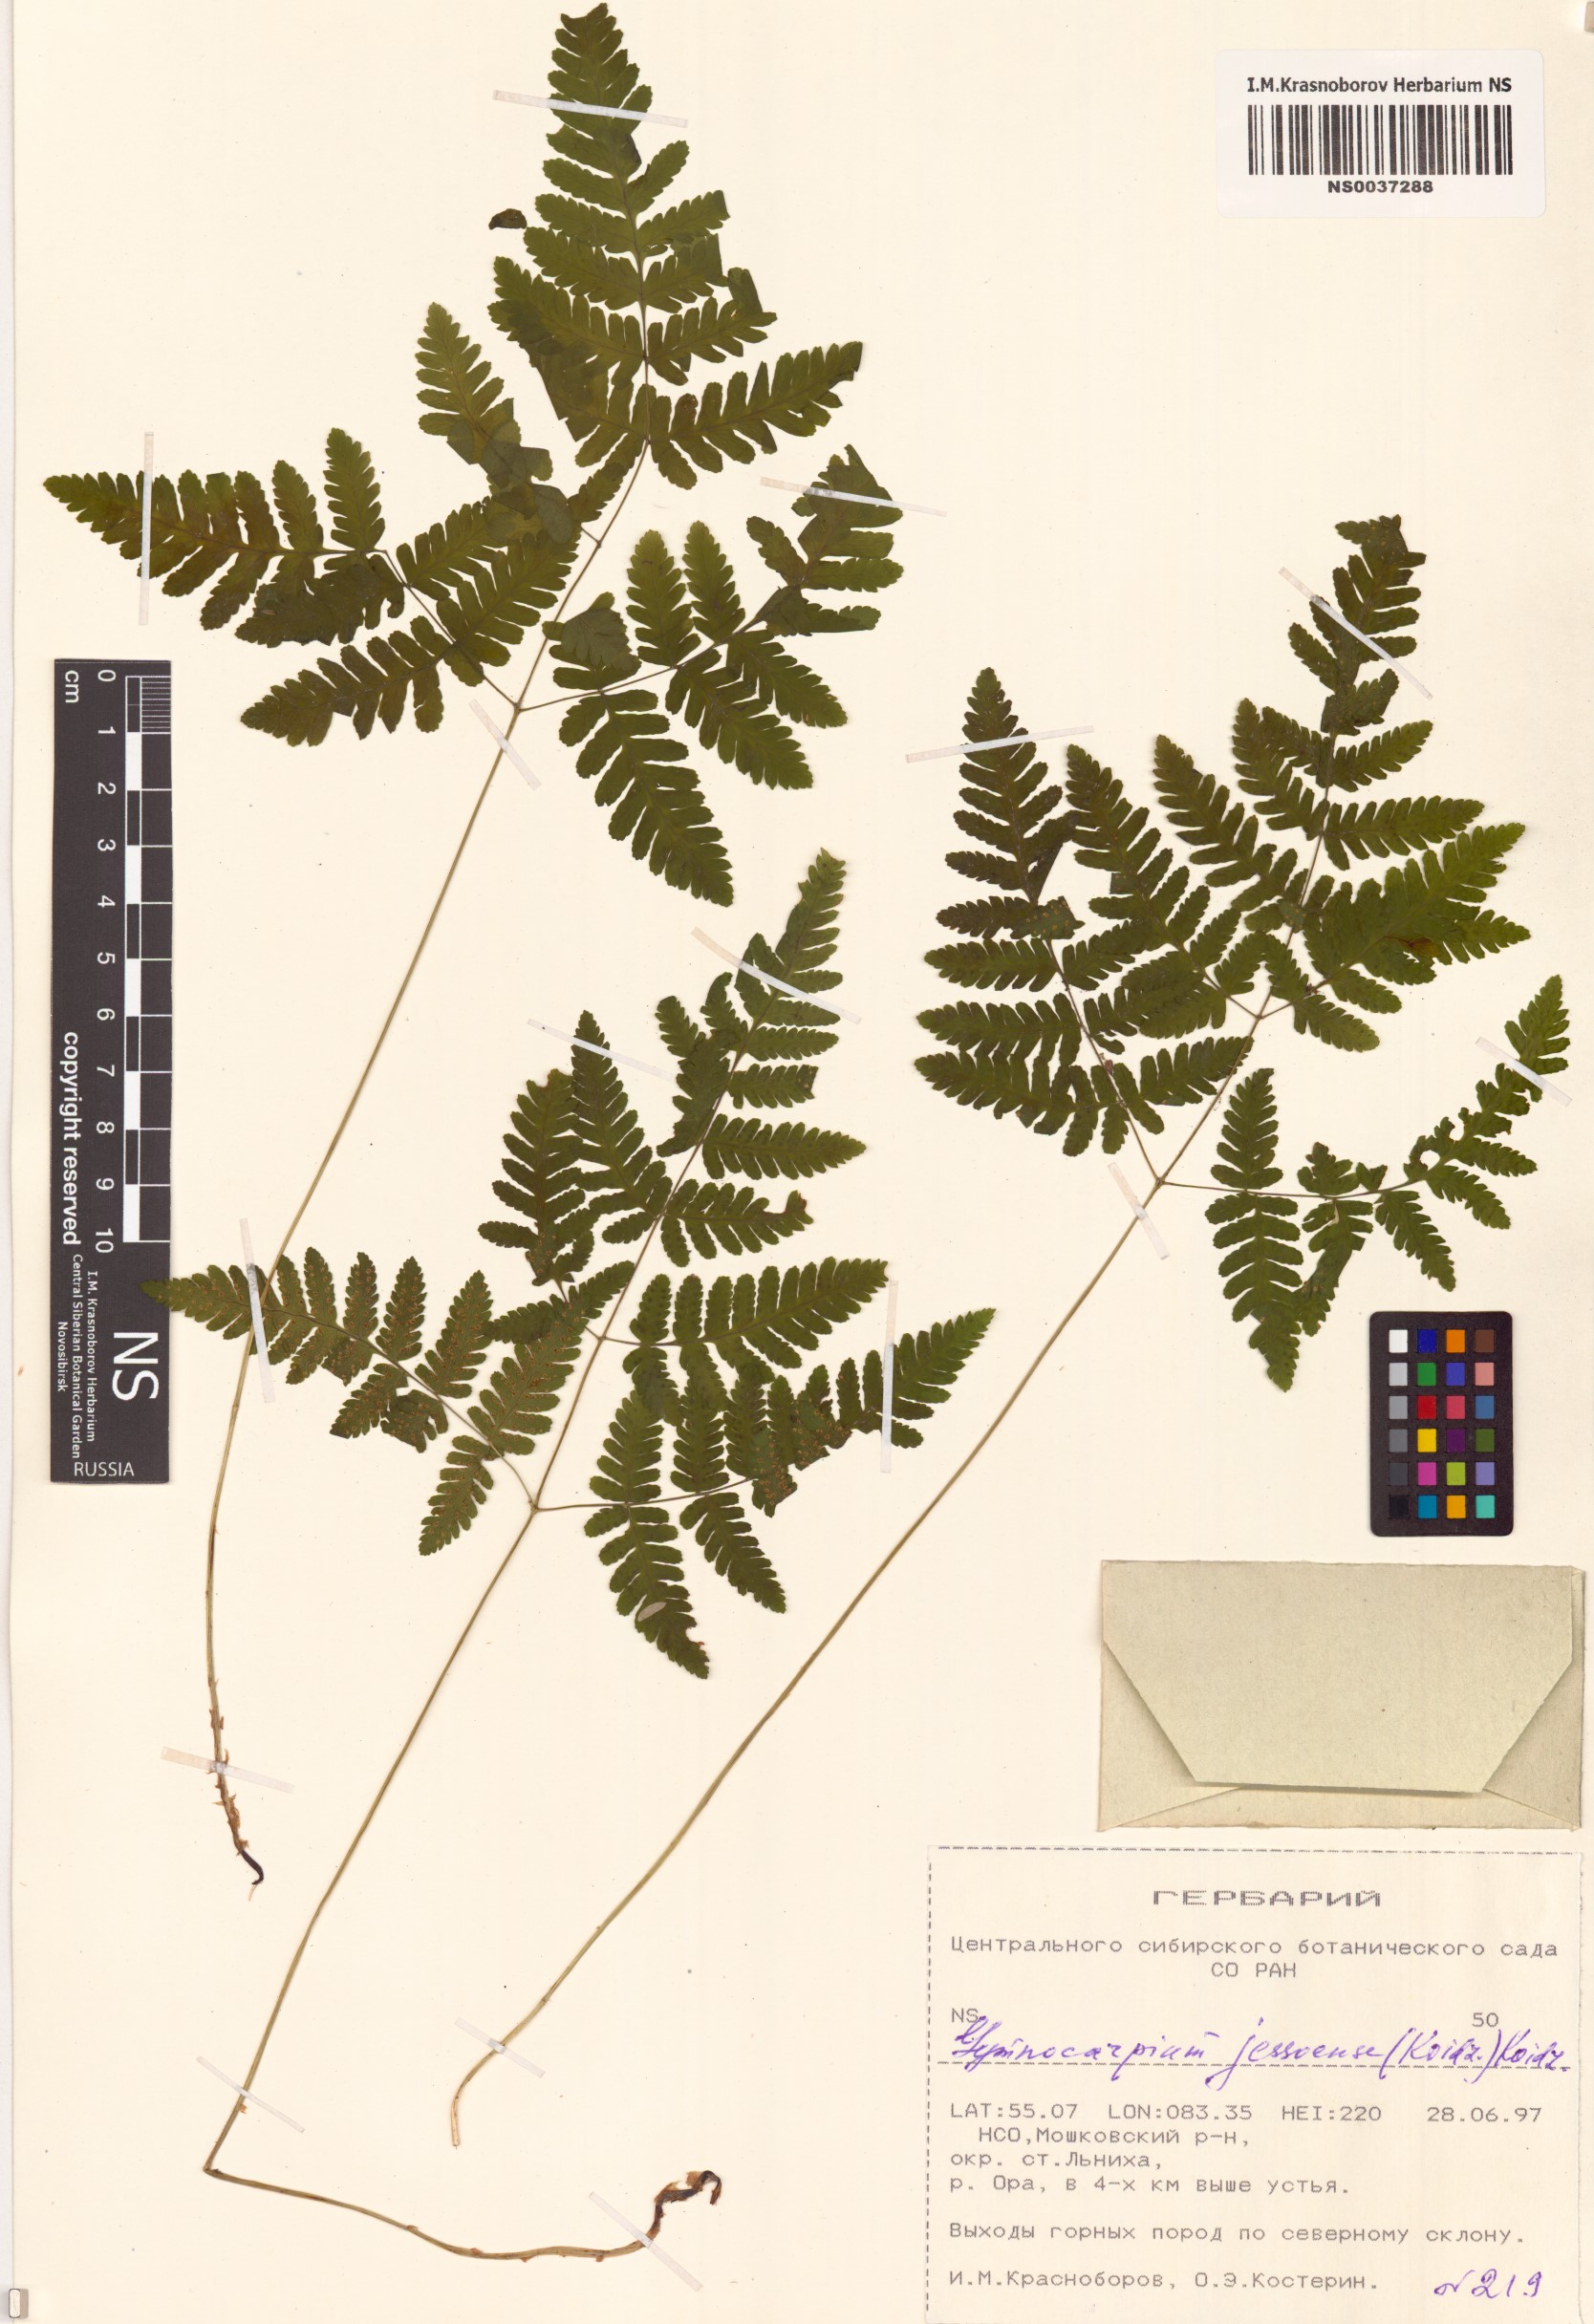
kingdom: Plantae
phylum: Tracheophyta
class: Polypodiopsida
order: Polypodiales
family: Cystopteridaceae
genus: Gymnocarpium
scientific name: Gymnocarpium jessoense
